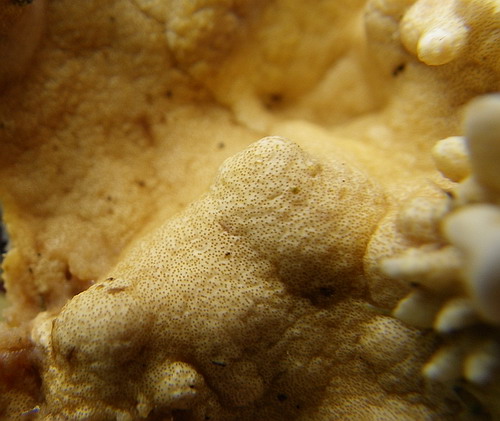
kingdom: Fungi
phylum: Ascomycota
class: Sordariomycetes
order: Hypocreales
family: Hypocreaceae
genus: Trichoderma
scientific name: Trichoderma citrinum
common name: udbredt kødkerne
